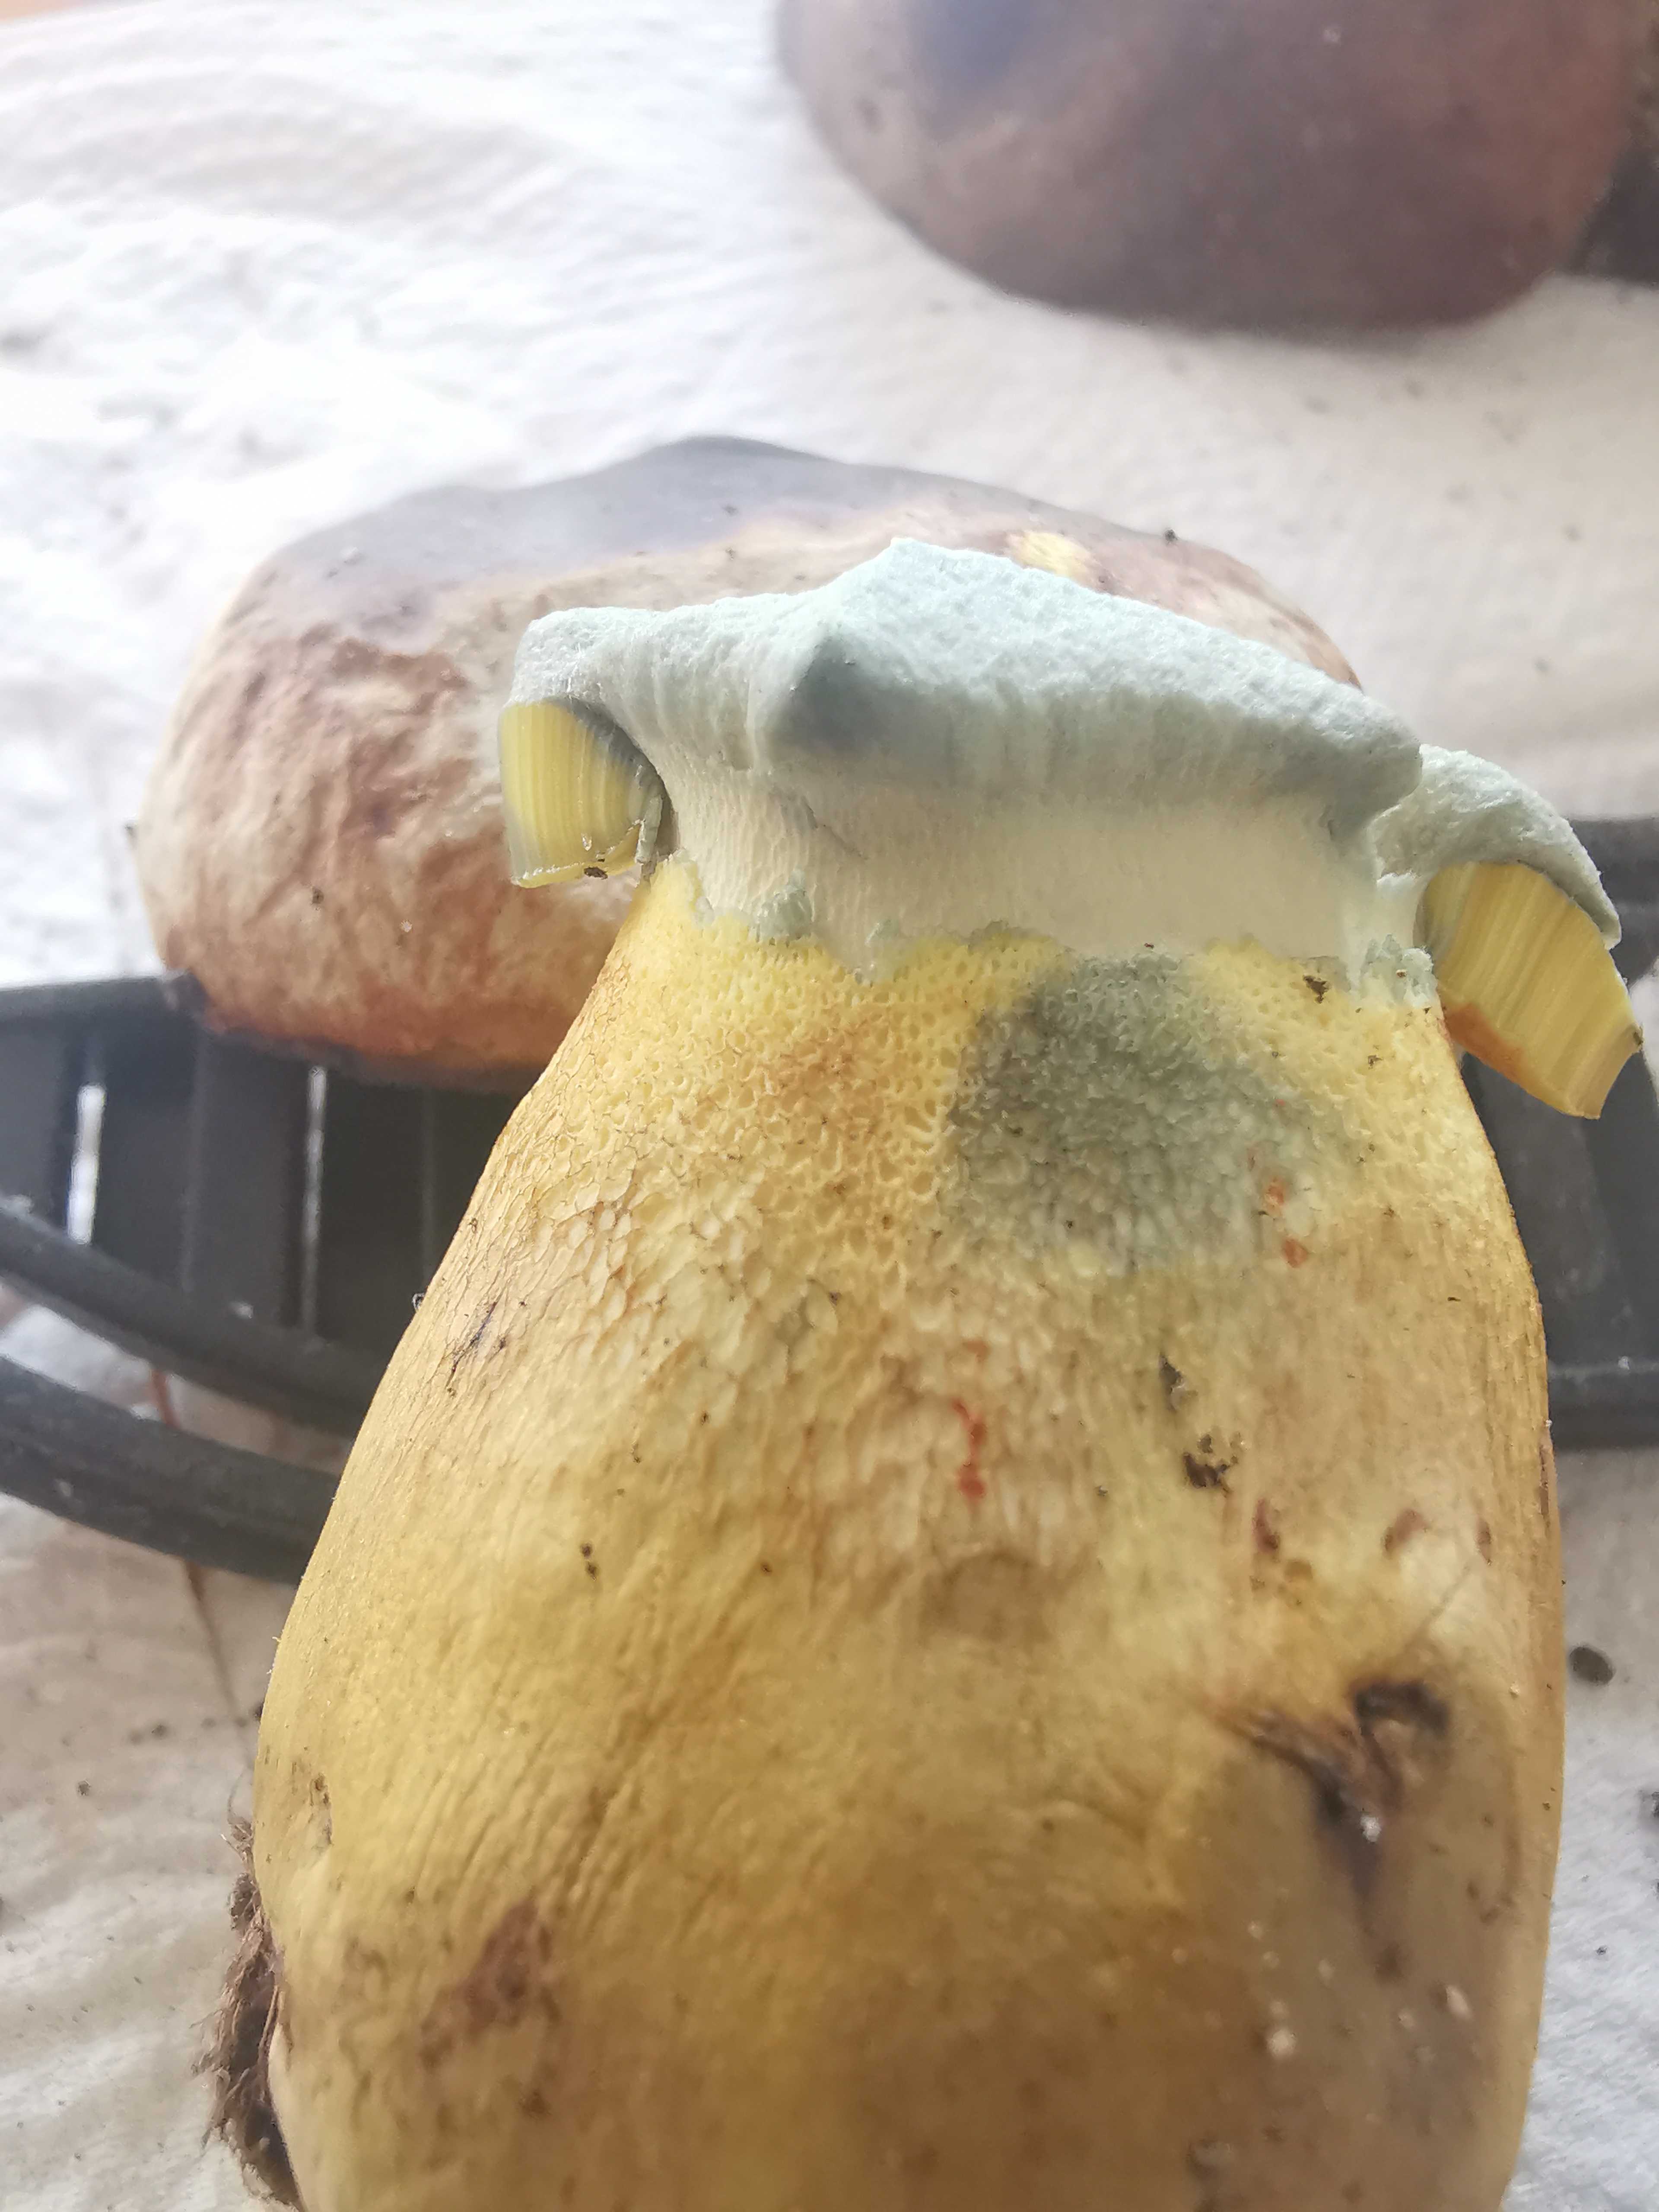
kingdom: Fungi
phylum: Basidiomycota
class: Agaricomycetes
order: Boletales
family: Boletaceae
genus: Butyriboletus
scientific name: Butyriboletus appendiculatus
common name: tenstokket rørhat
